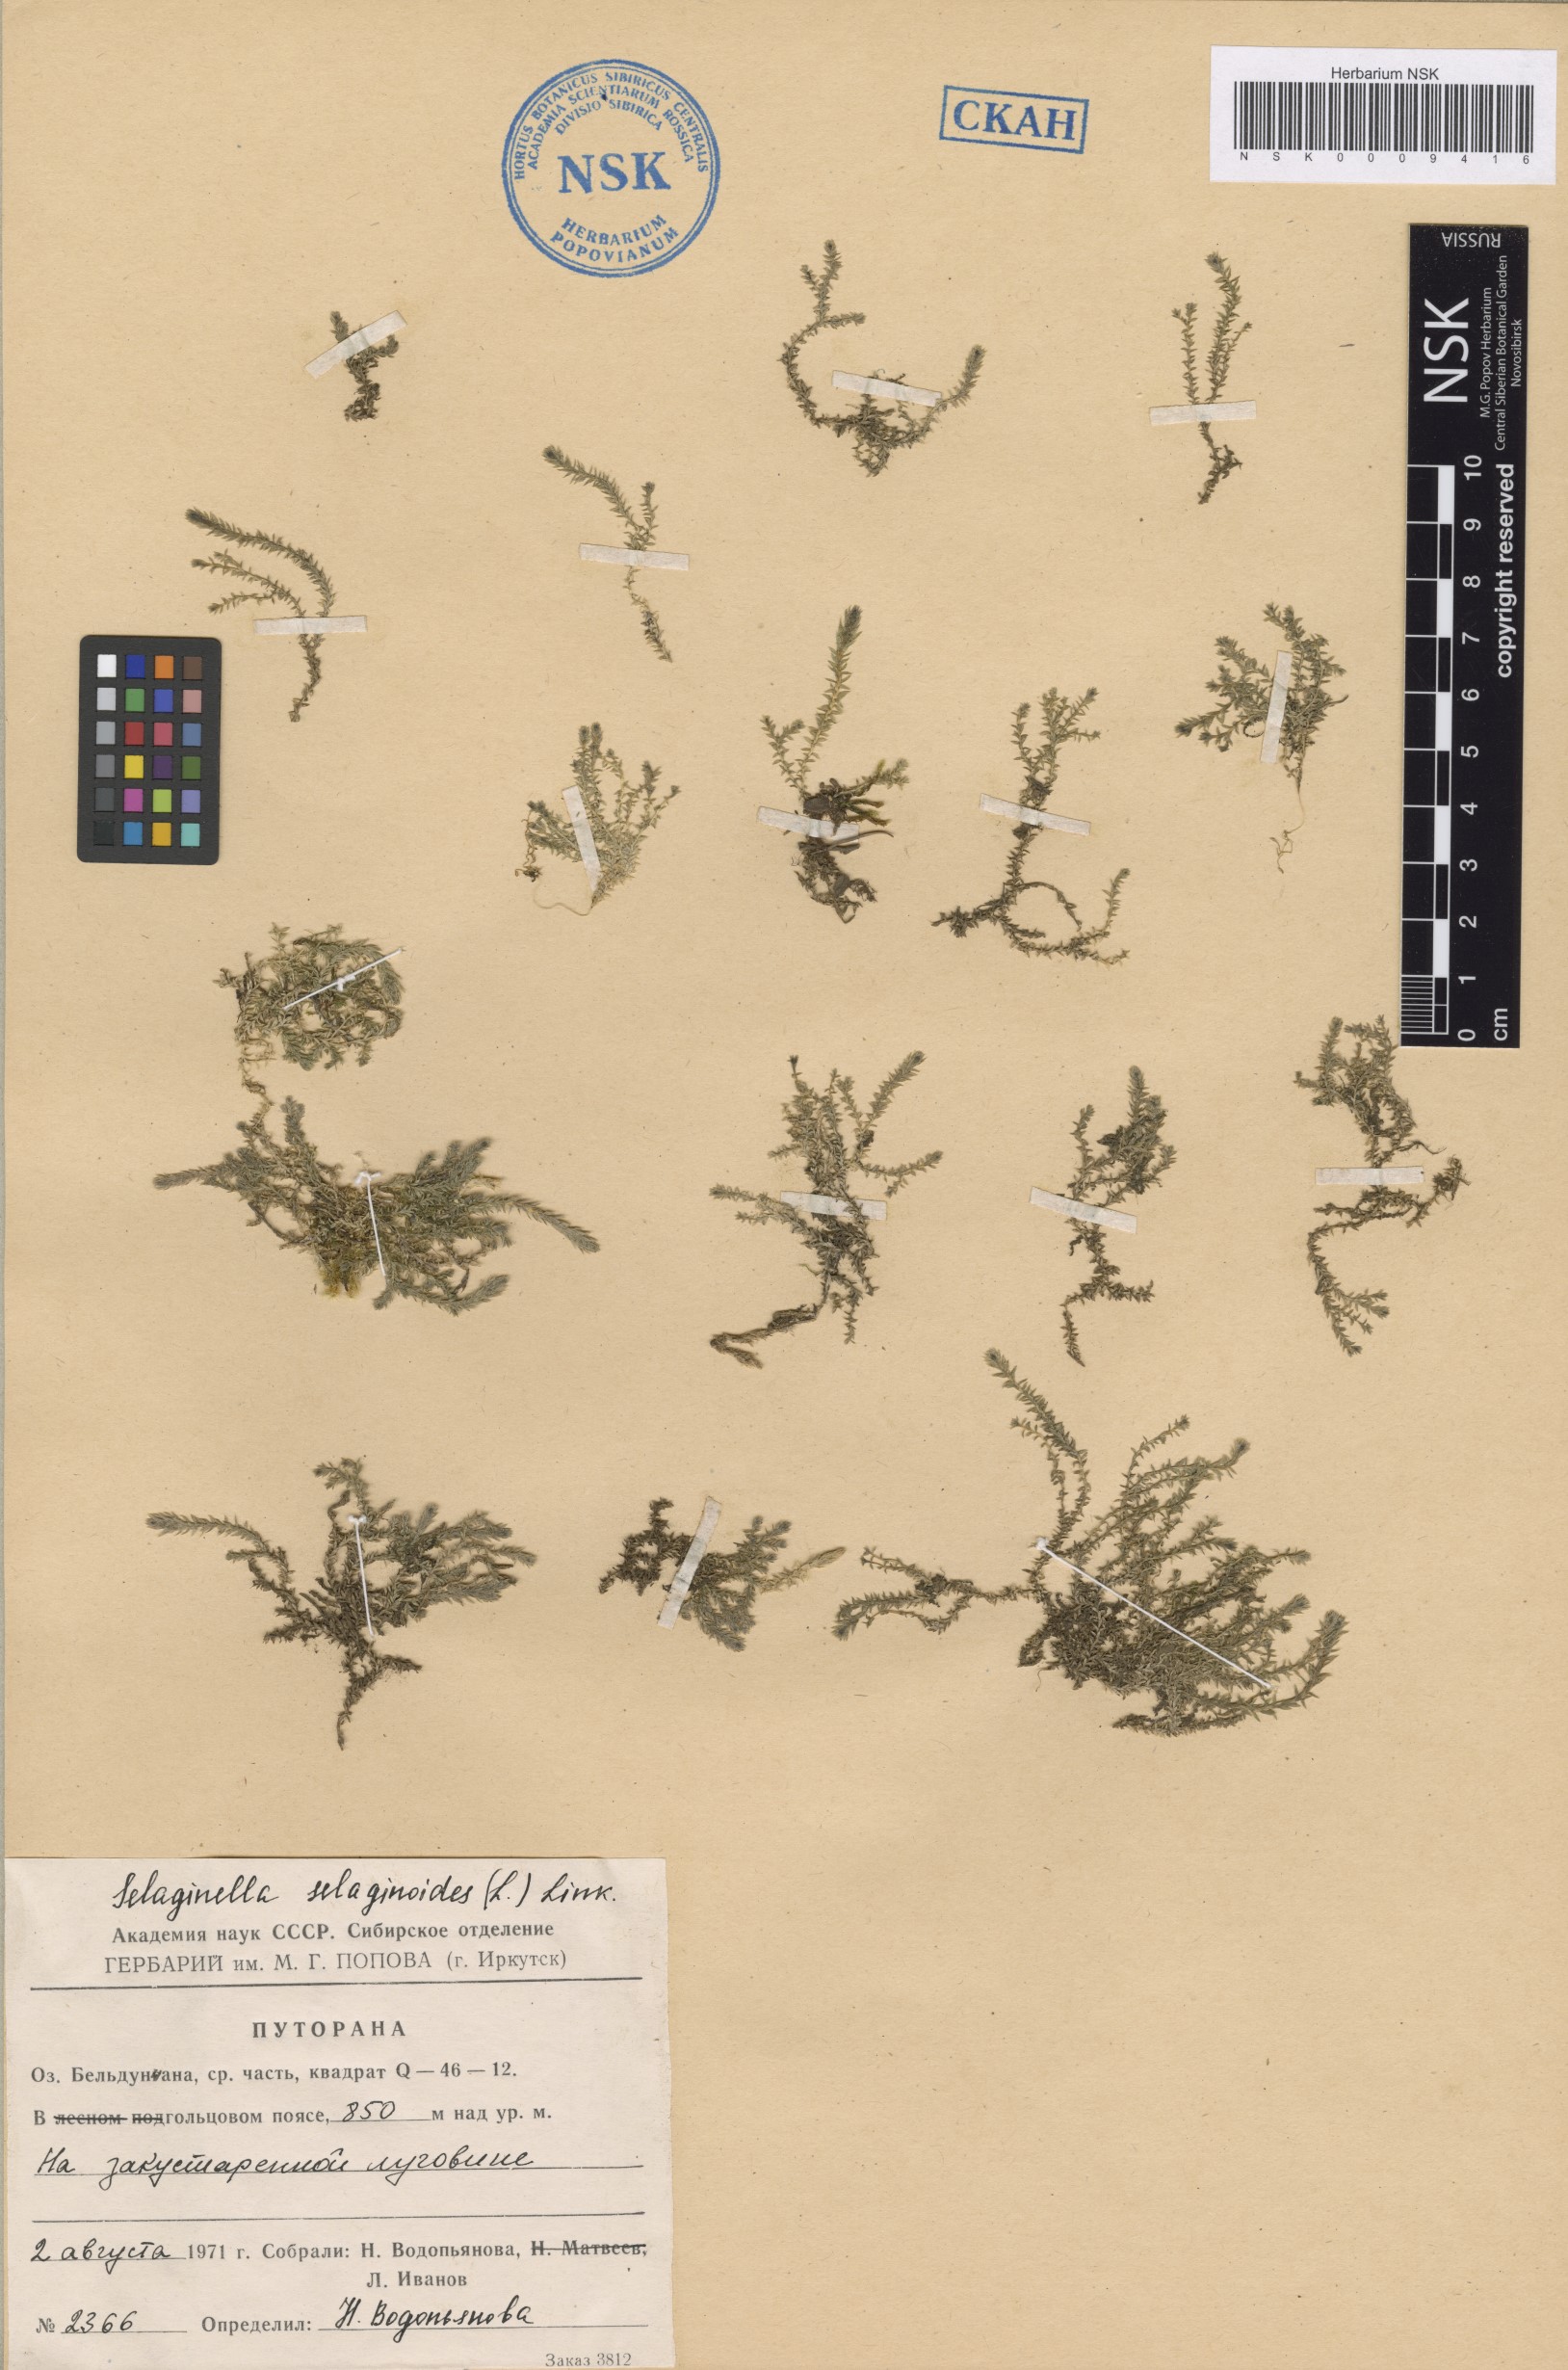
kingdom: Plantae
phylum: Tracheophyta
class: Lycopodiopsida
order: Selaginellales
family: Selaginellaceae
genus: Selaginella
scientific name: Selaginella selaginoides
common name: Prickly mountain-moss
